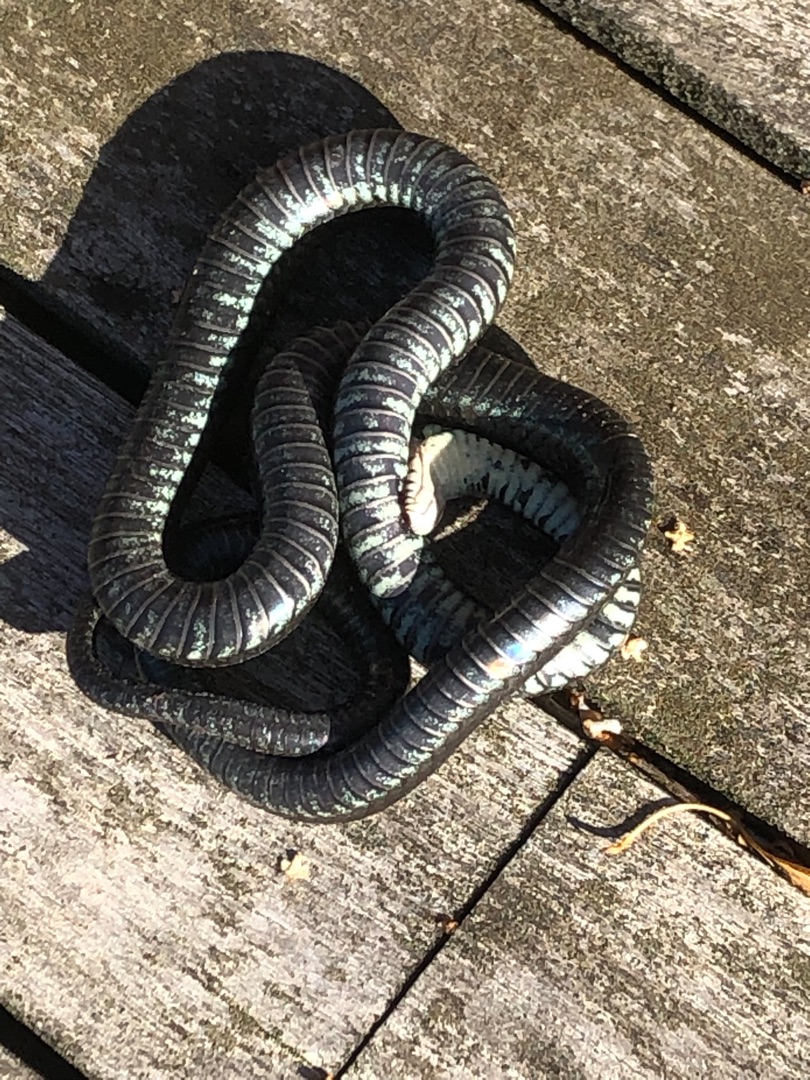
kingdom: Animalia
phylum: Chordata
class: Squamata
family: Colubridae
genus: Natrix
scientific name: Natrix natrix
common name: Snog
